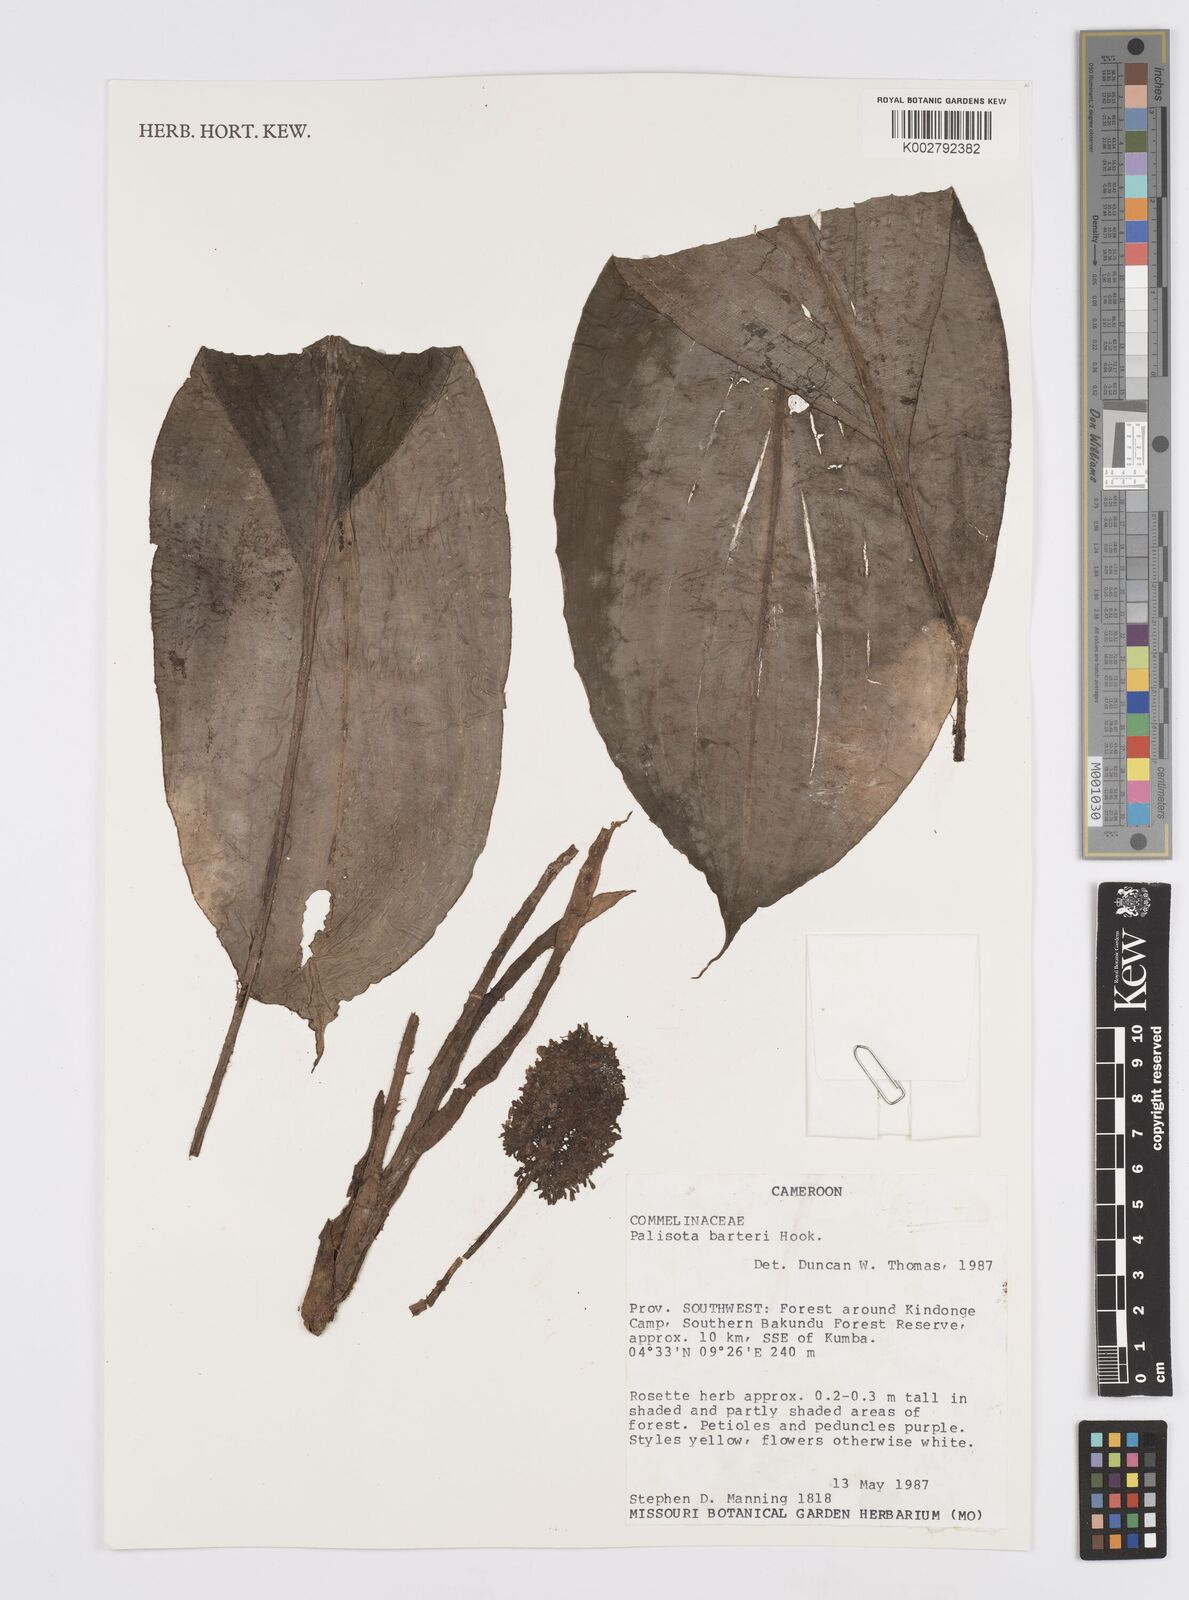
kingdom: Plantae
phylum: Tracheophyta
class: Liliopsida
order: Commelinales
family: Commelinaceae
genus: Palisota
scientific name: Palisota barteri
